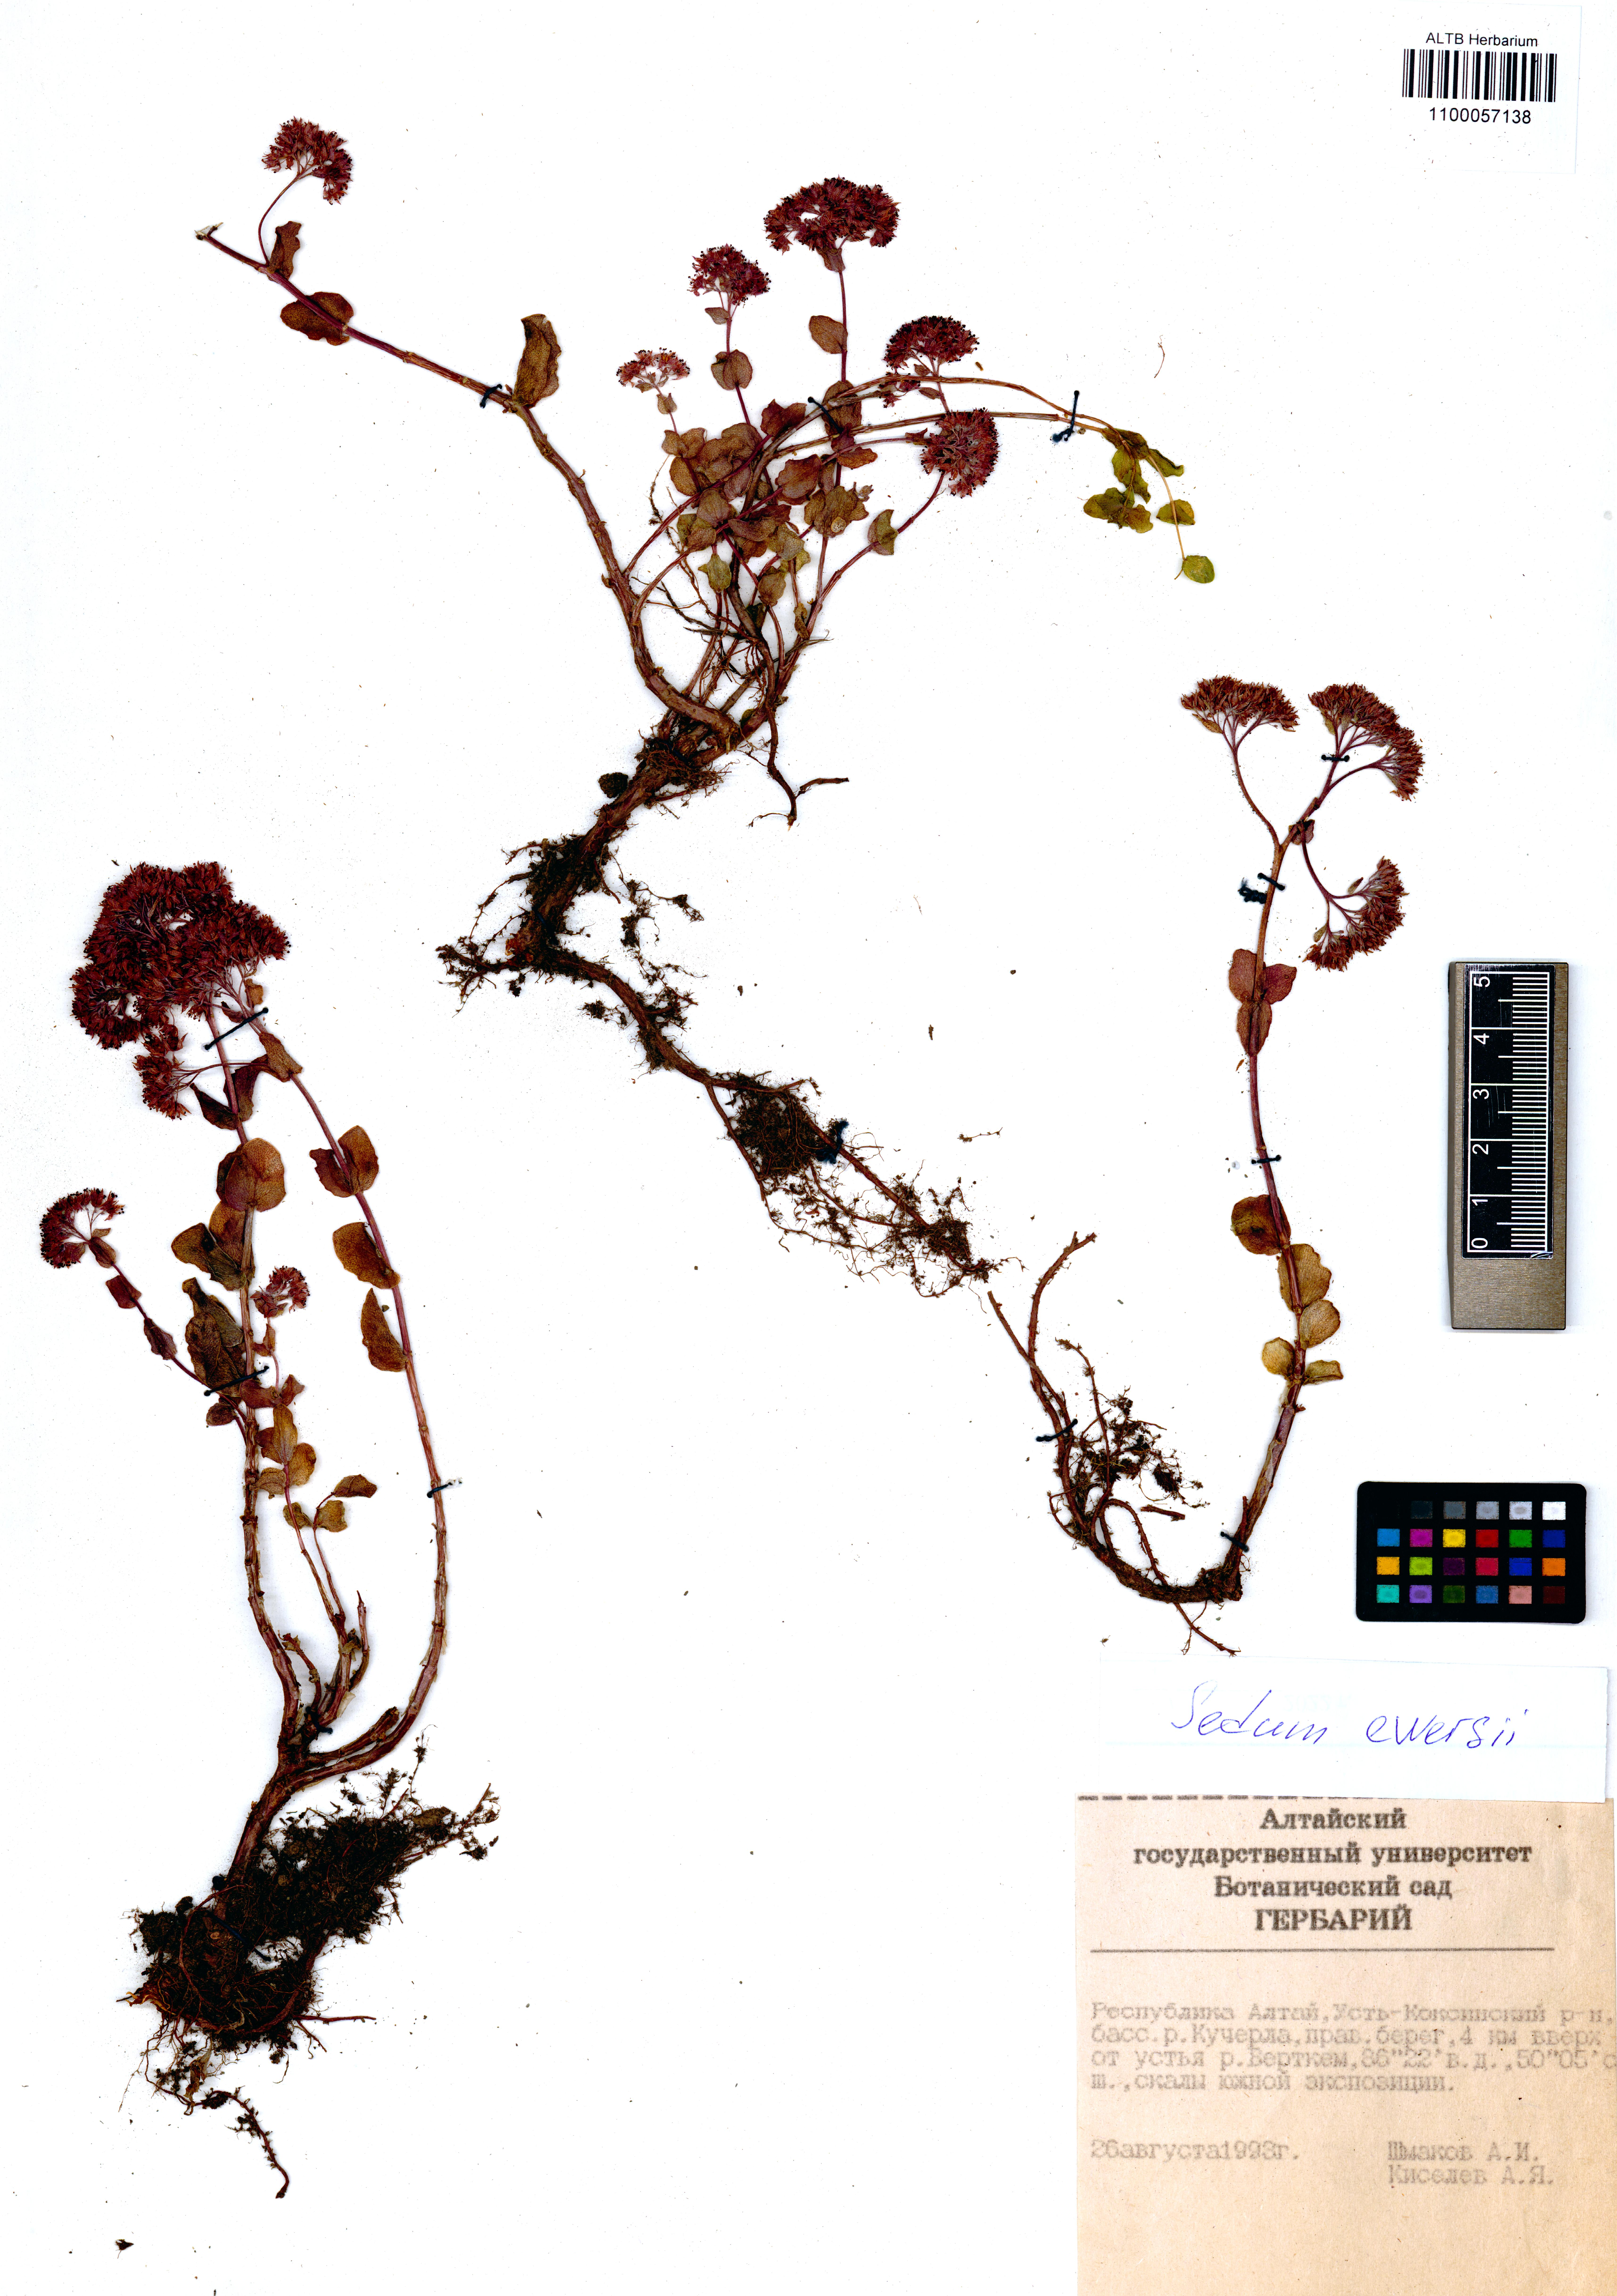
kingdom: Plantae
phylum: Tracheophyta
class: Magnoliopsida
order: Saxifragales
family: Crassulaceae
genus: Hylotelephium
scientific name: Hylotelephium ewersii
